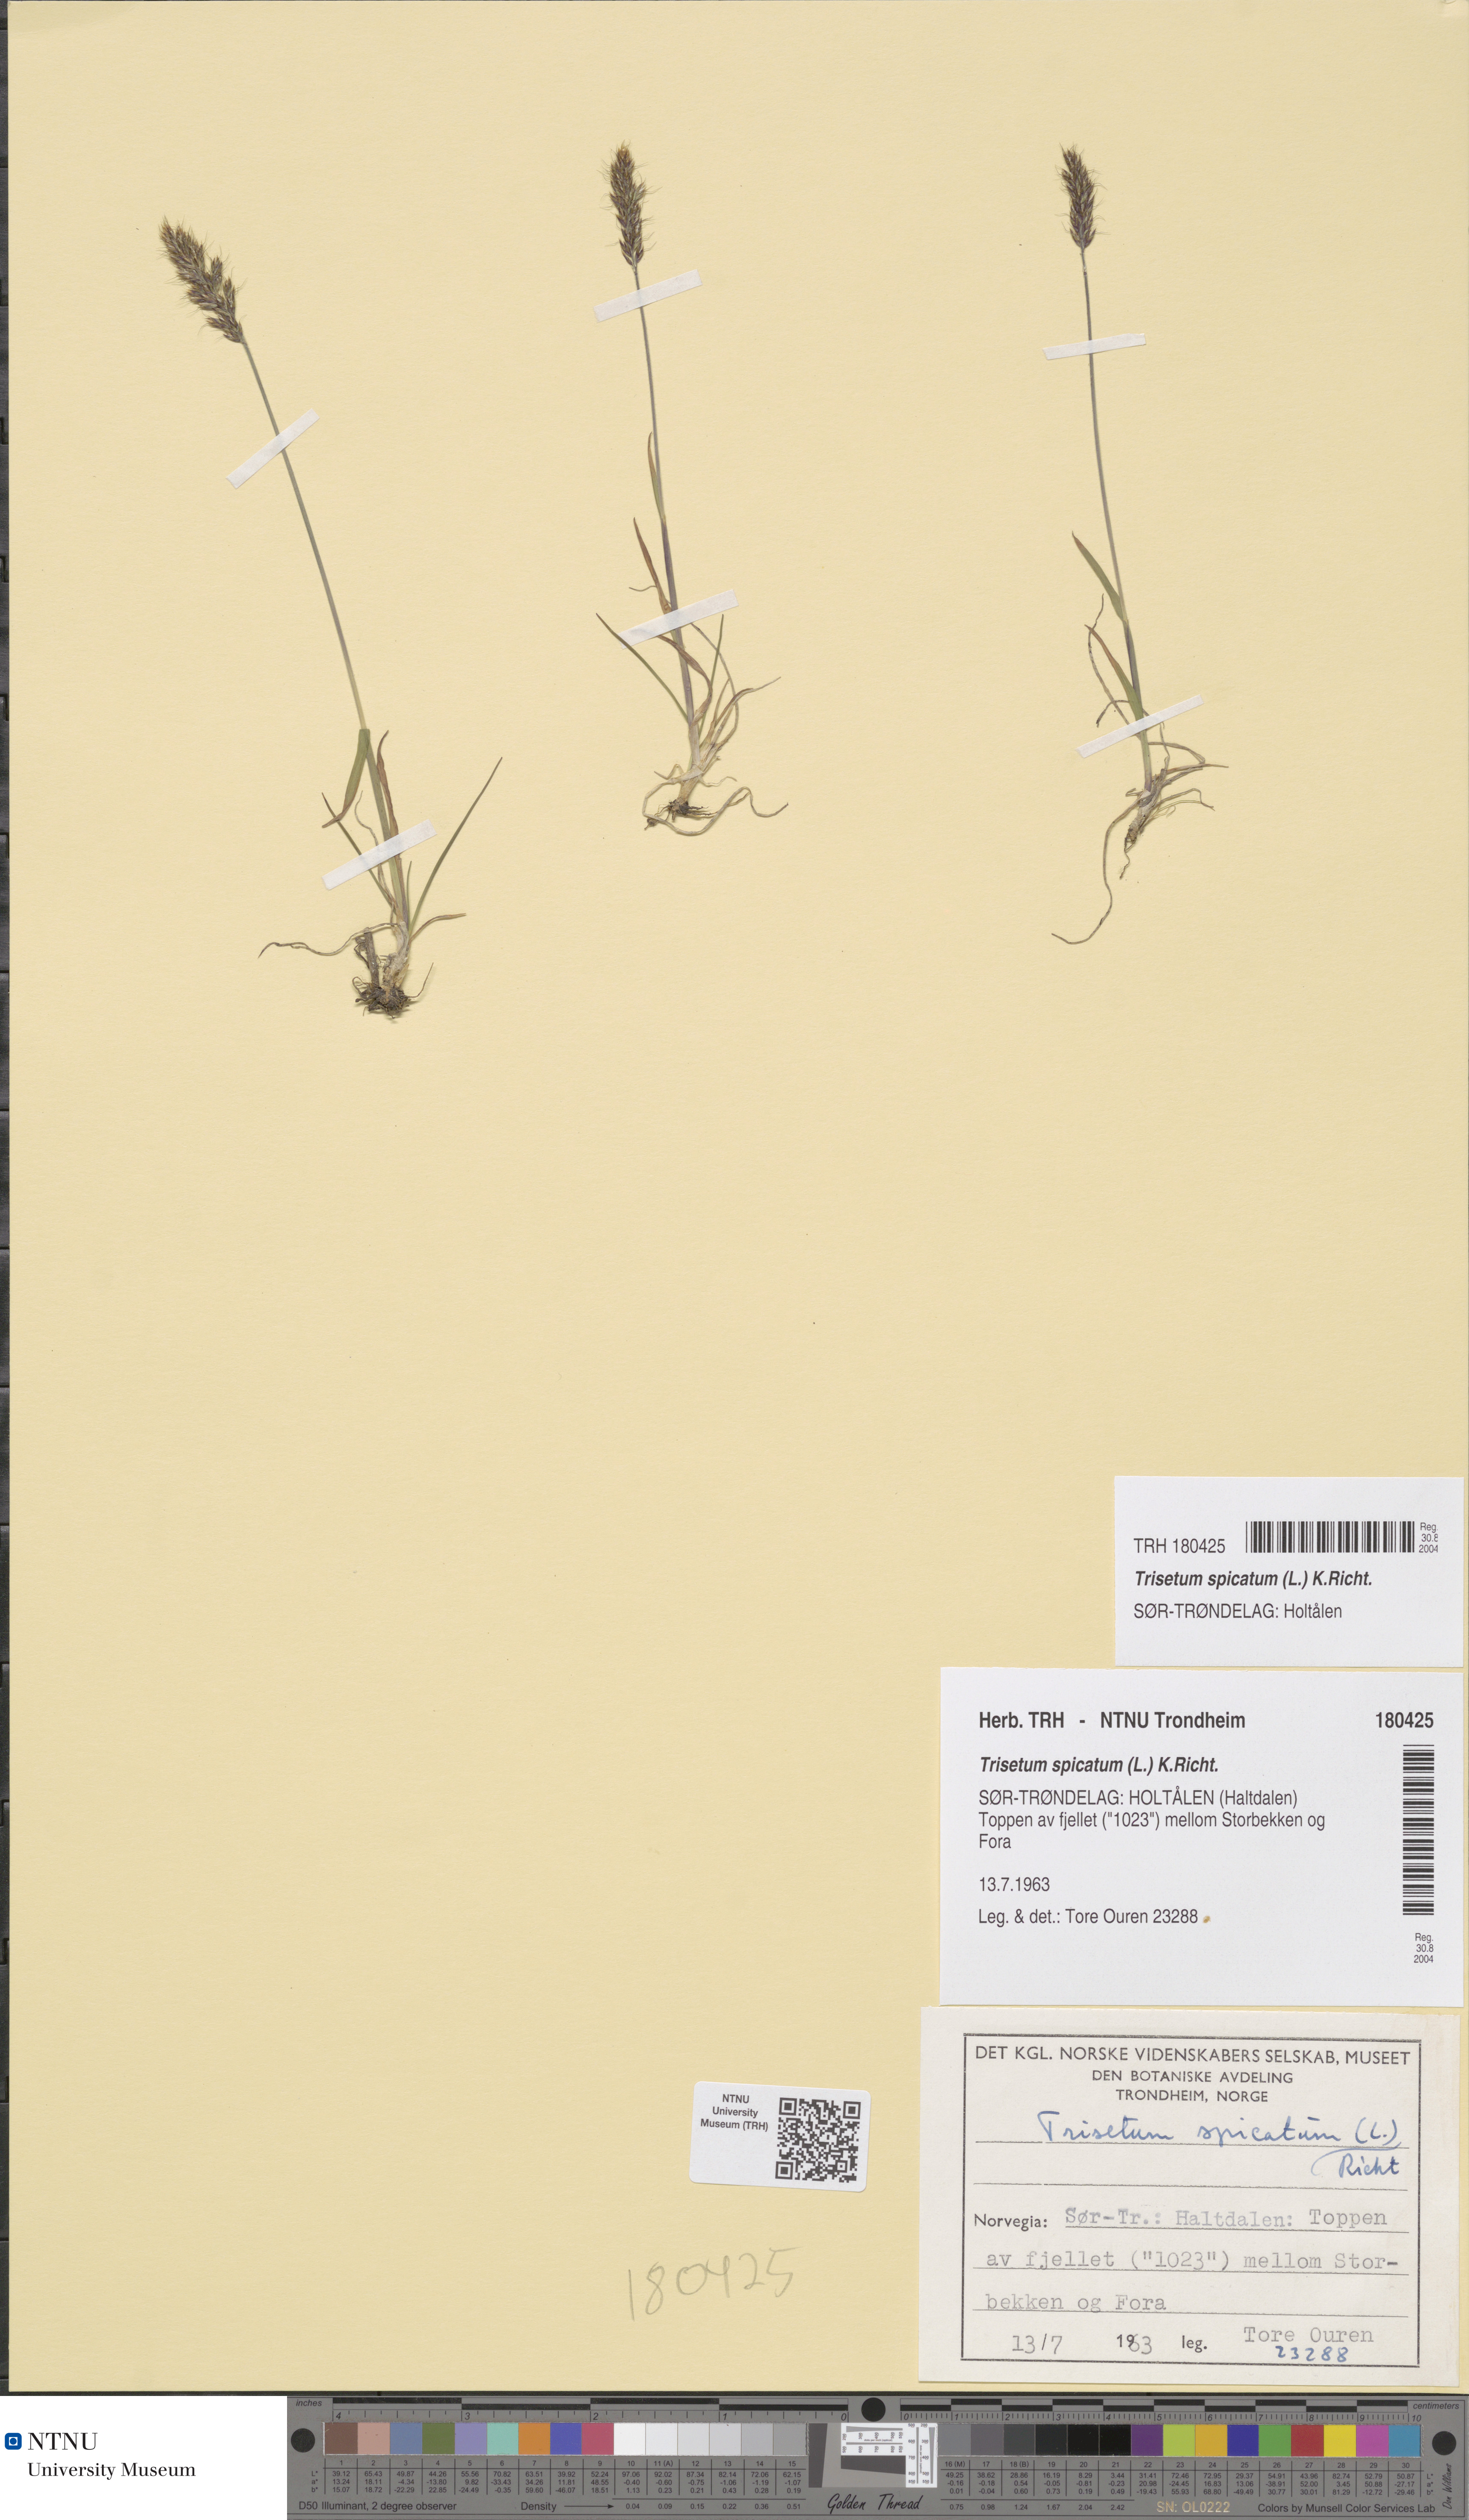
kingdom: Plantae
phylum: Tracheophyta
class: Liliopsida
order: Poales
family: Poaceae
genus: Koeleria
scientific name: Koeleria spicata
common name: Mountain trisetum
